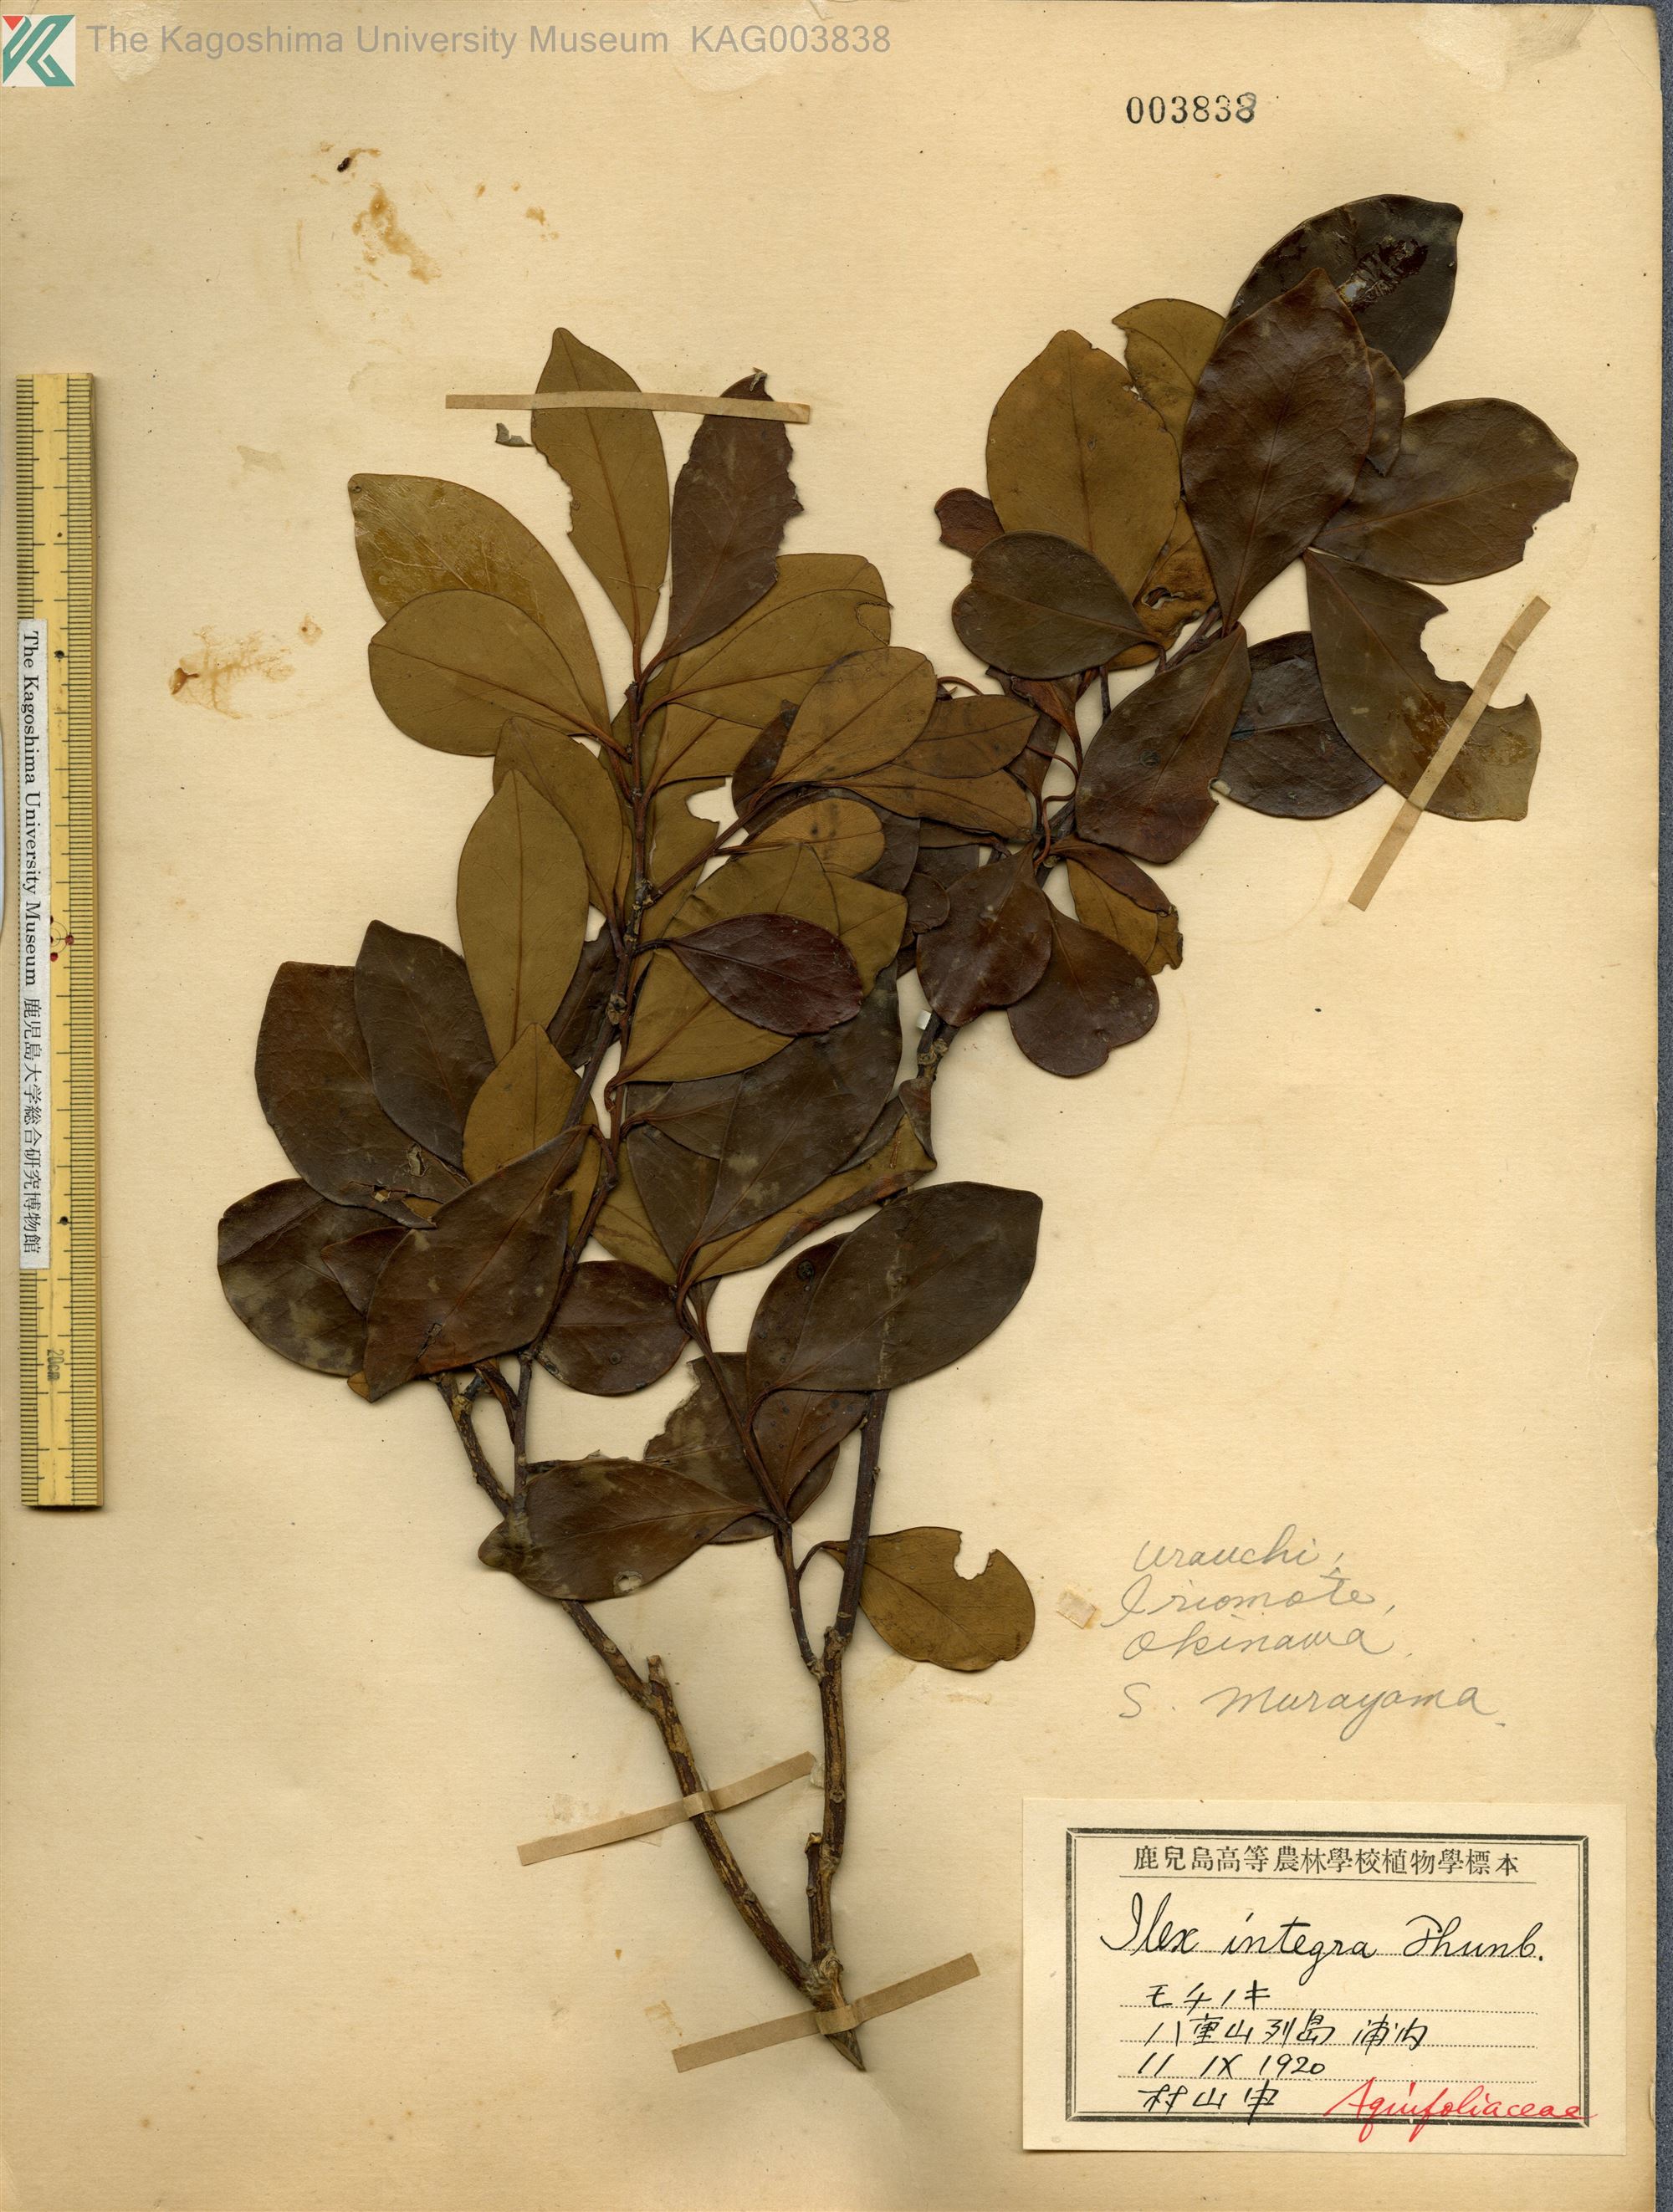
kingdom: Plantae
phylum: Tracheophyta
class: Magnoliopsida
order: Aquifoliales
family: Aquifoliaceae
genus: Ilex
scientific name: Ilex integra
